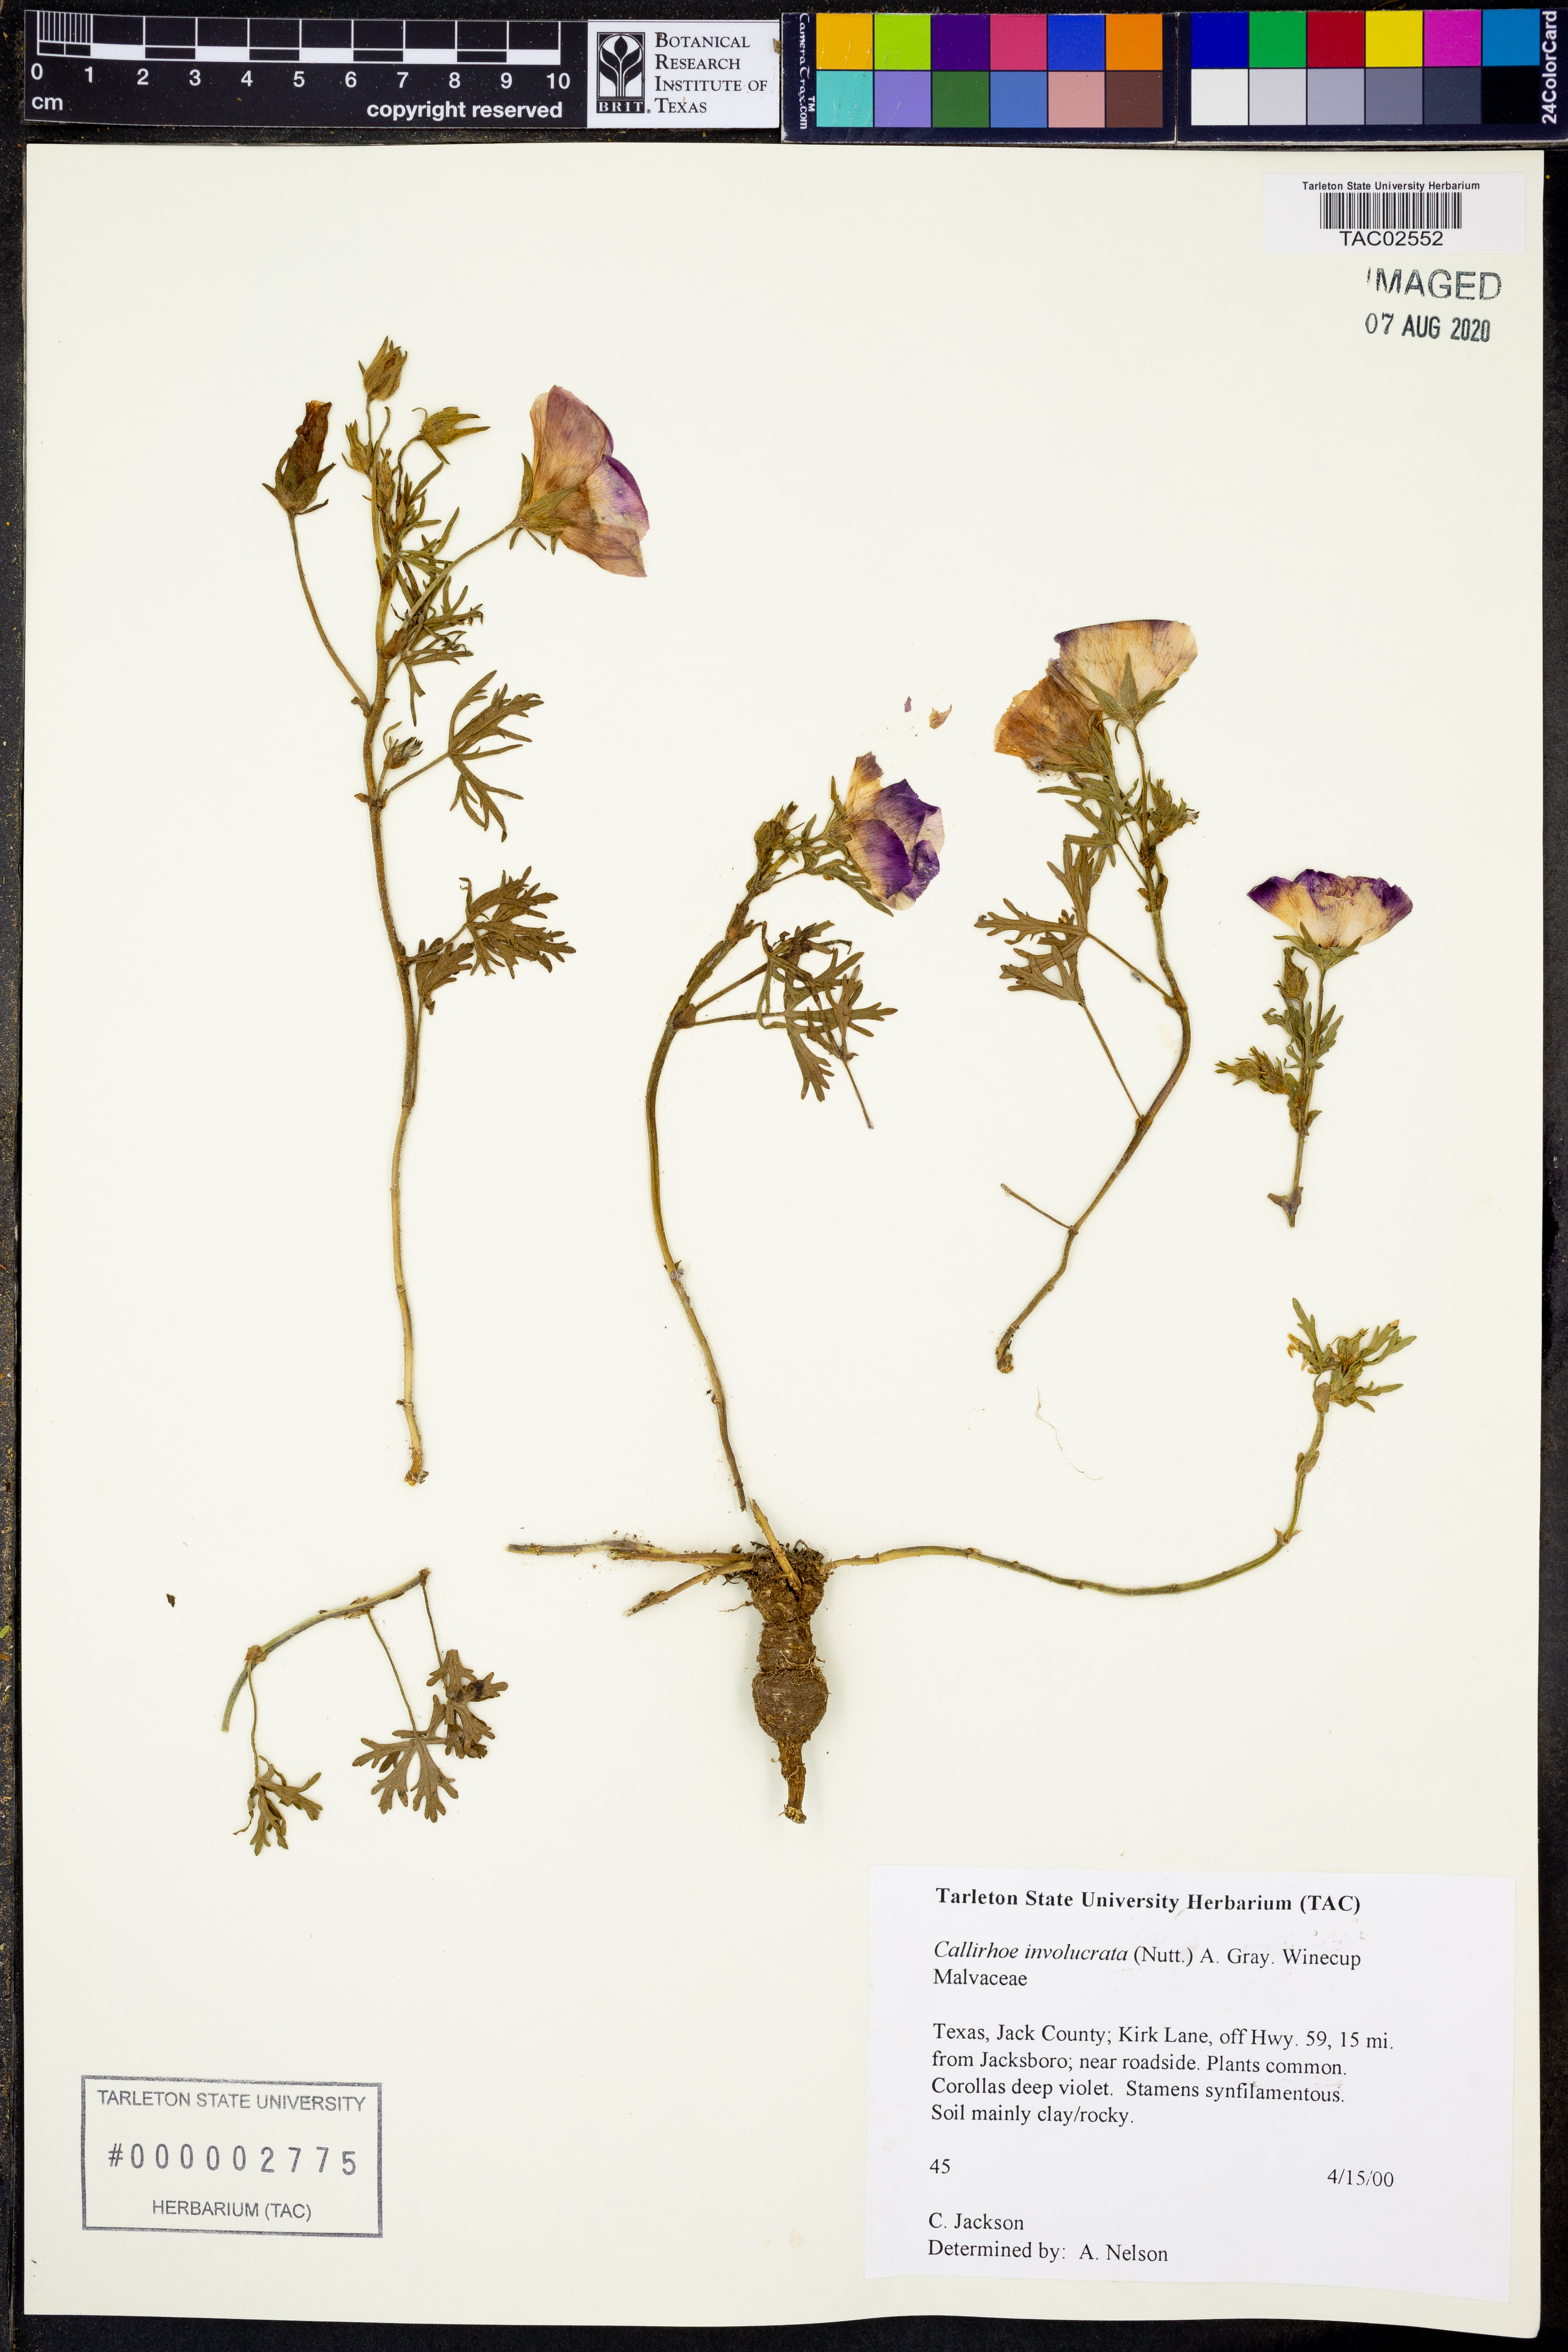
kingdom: Plantae
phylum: Tracheophyta
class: Magnoliopsida
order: Malvales
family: Malvaceae
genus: Callirhoe
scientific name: Callirhoe involucrata
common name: Purple poppy-mallow
